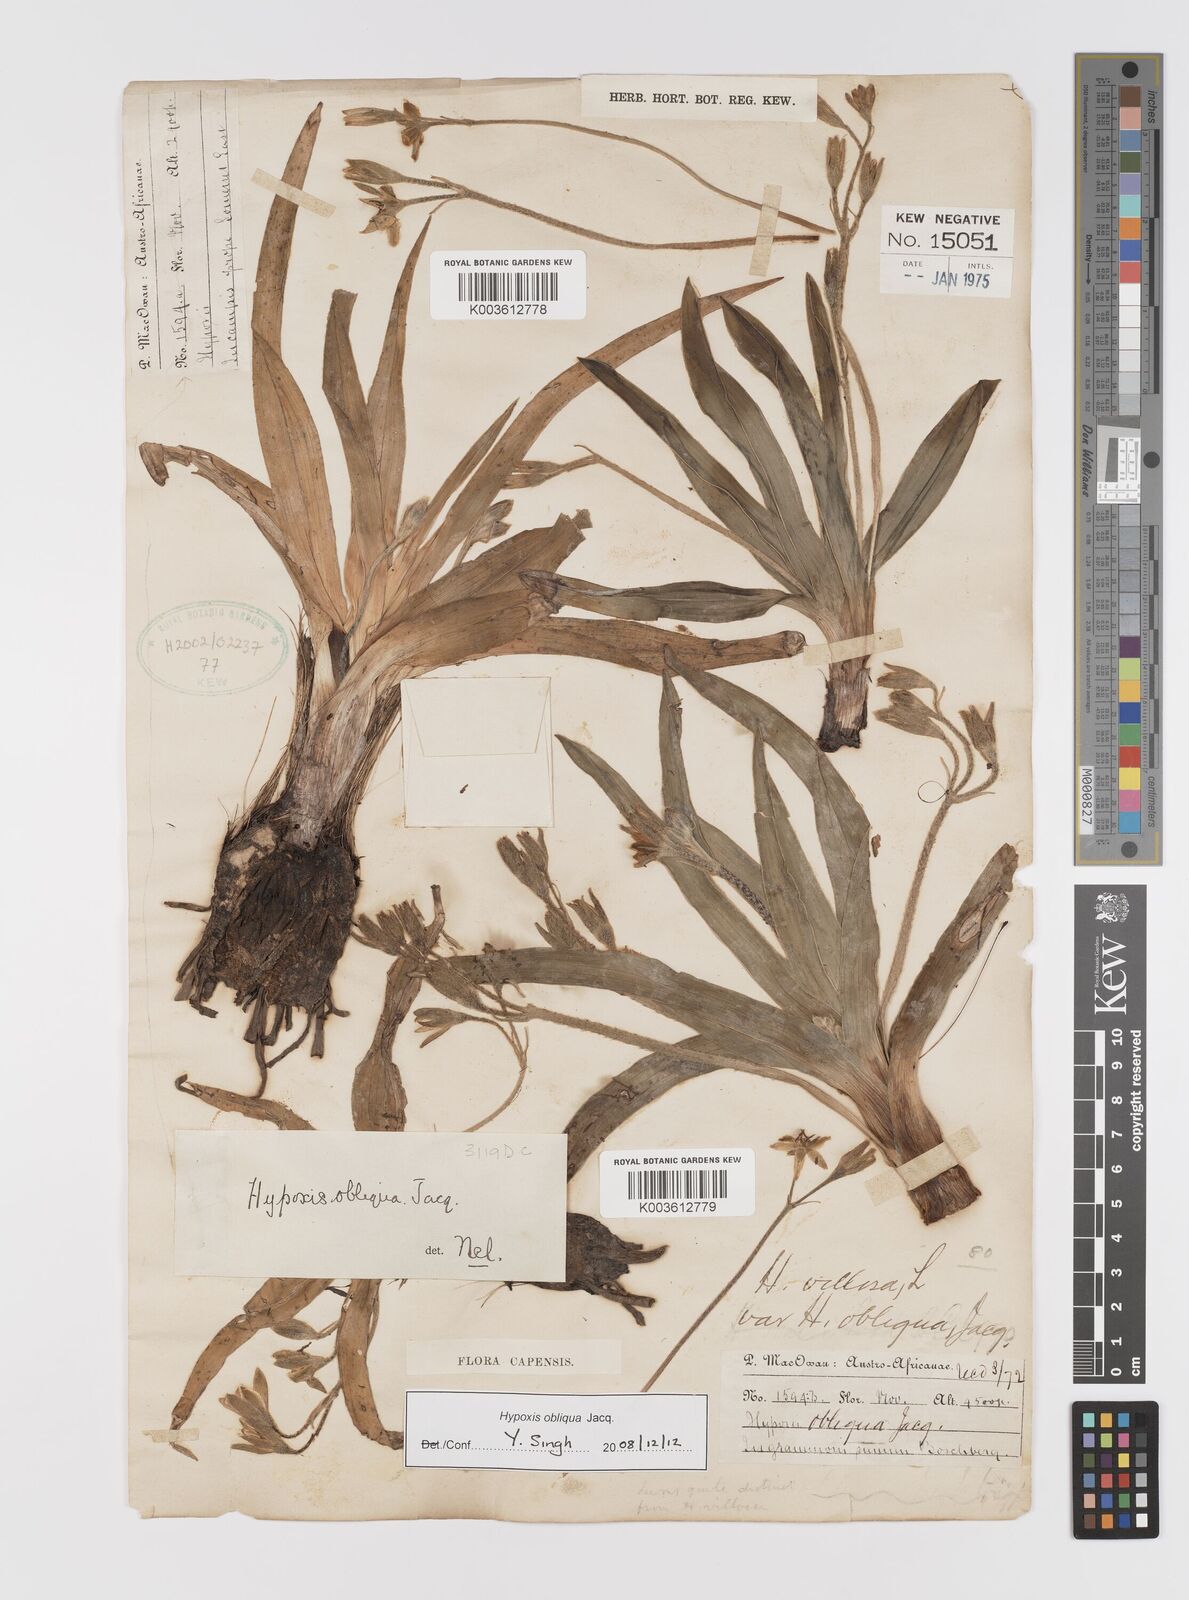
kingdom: Plantae
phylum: Tracheophyta
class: Liliopsida
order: Asparagales
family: Hypoxidaceae
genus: Hypoxis
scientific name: Hypoxis villosa
